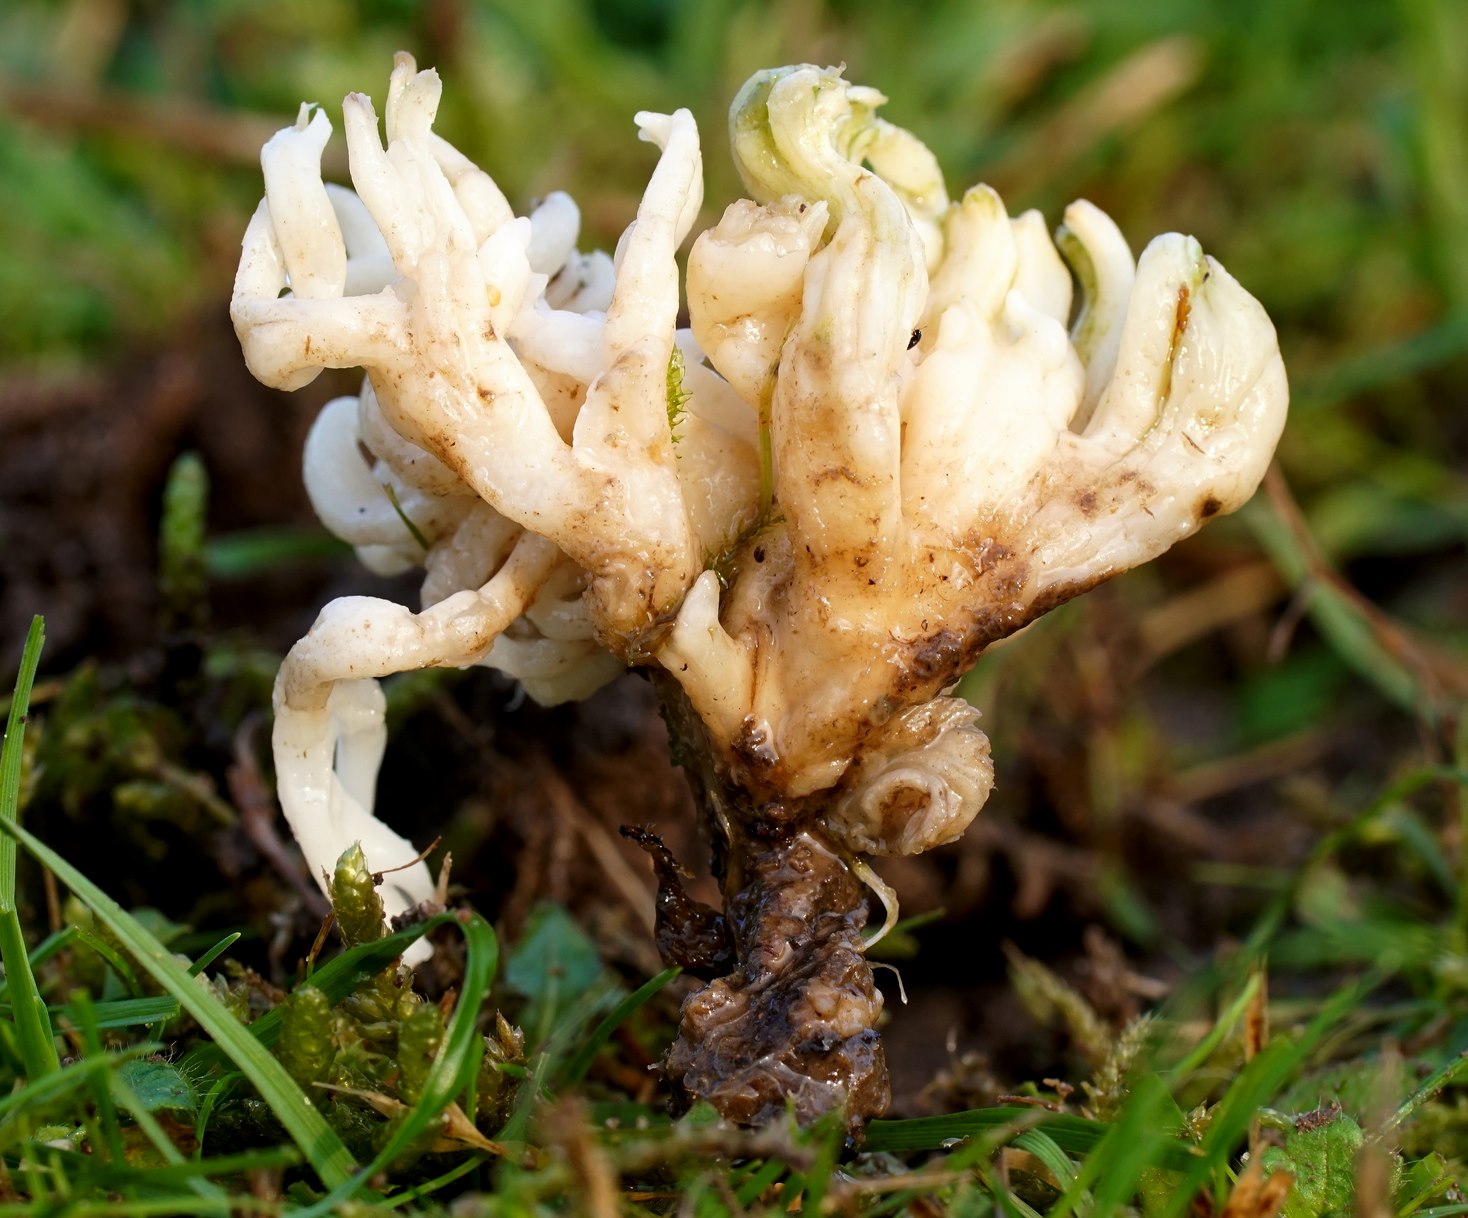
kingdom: Fungi
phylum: Basidiomycota
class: Agaricomycetes
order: Agaricales
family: Clavariaceae
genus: Ramariopsis
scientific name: Ramariopsis robusta
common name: tykgrenet køllesvamp
